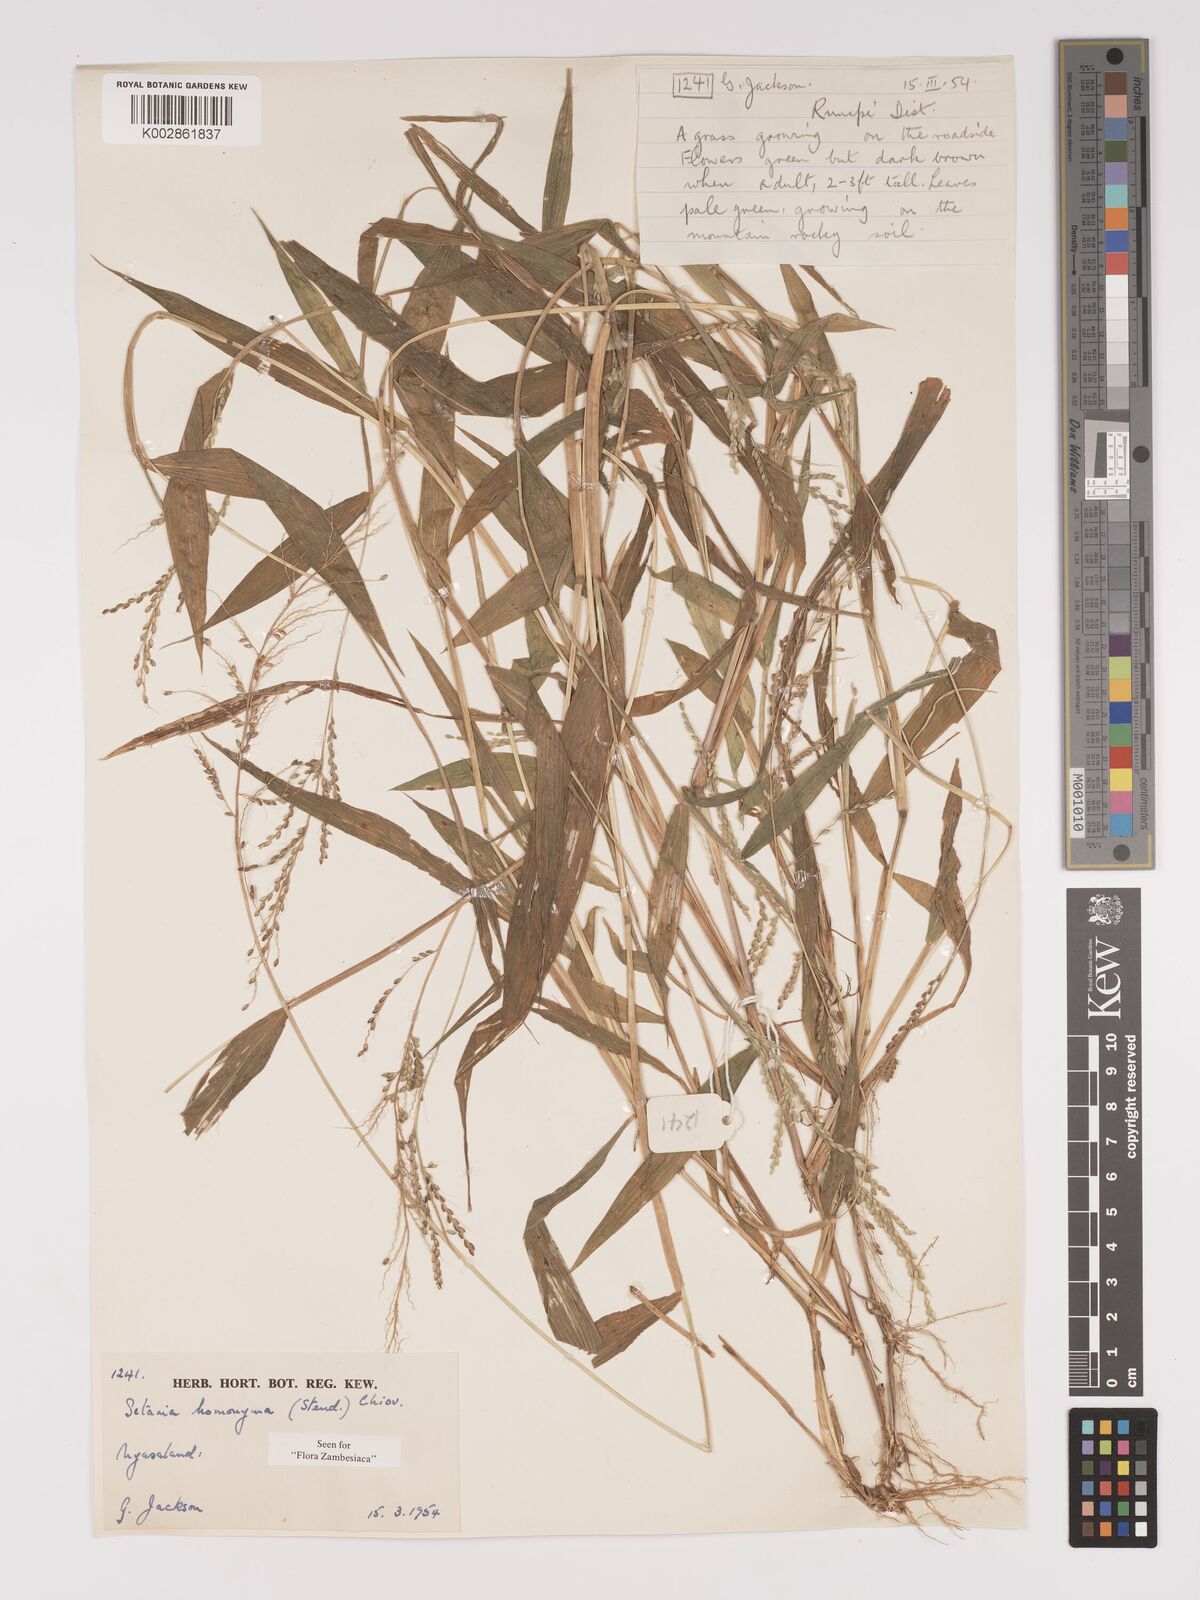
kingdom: Plantae
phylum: Tracheophyta
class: Liliopsida
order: Poales
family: Poaceae
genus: Setaria
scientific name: Setaria homonyma
